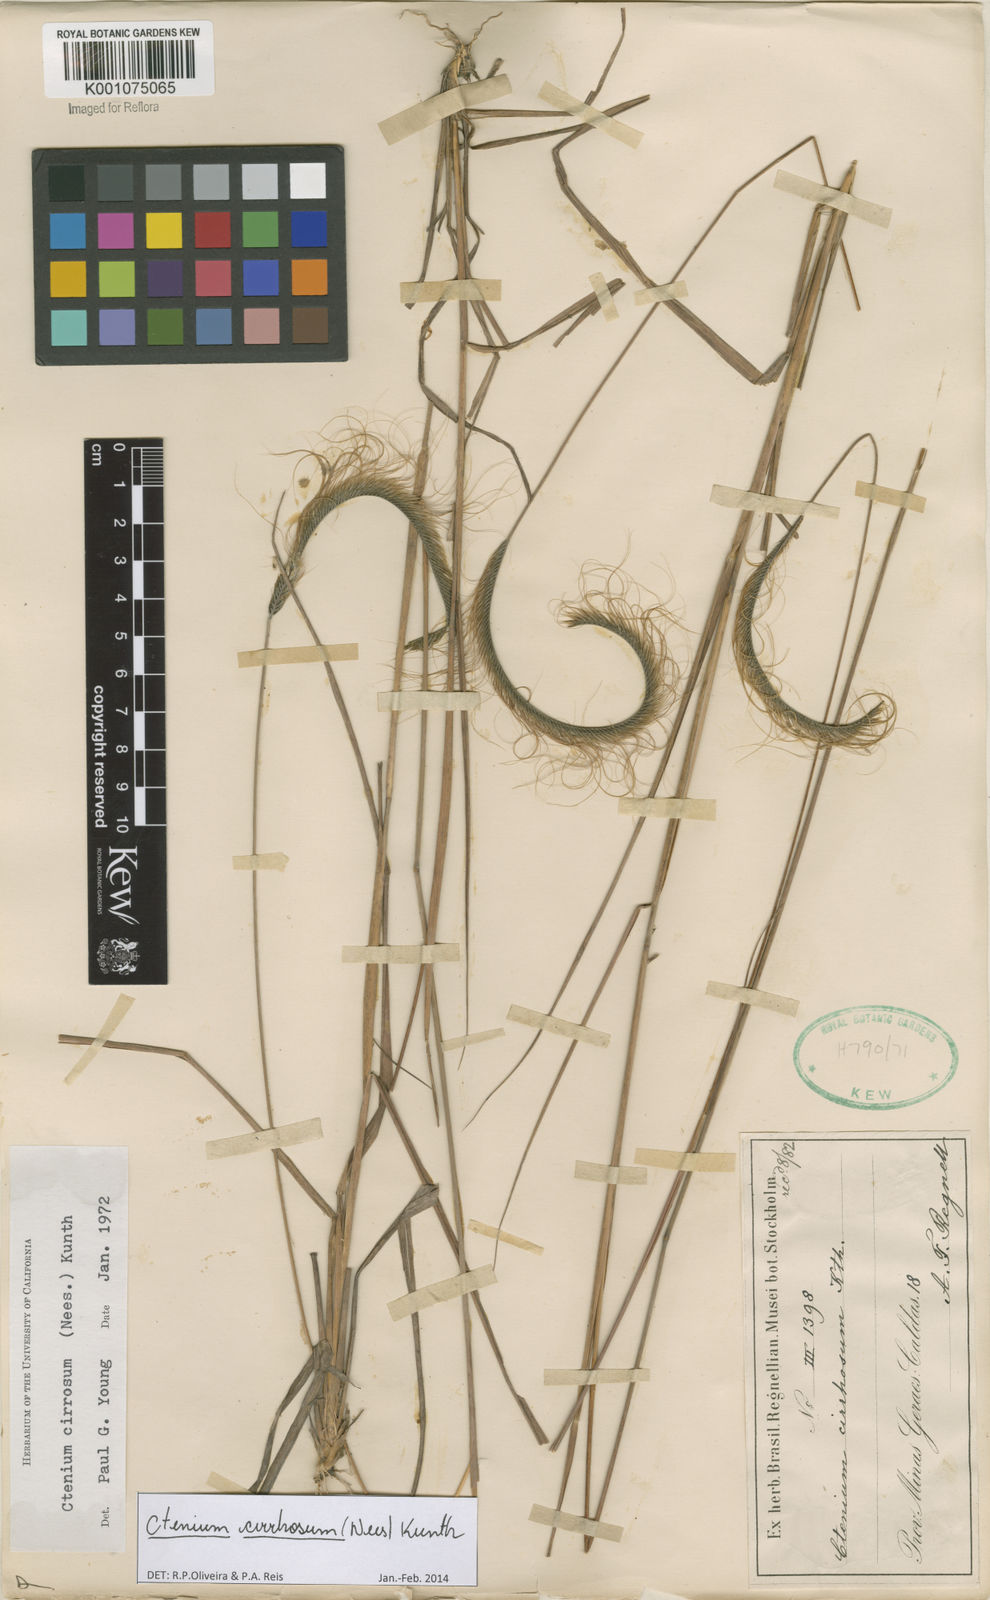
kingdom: Plantae
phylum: Tracheophyta
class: Liliopsida
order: Poales
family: Poaceae
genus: Ctenium
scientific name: Ctenium cirrhosum
